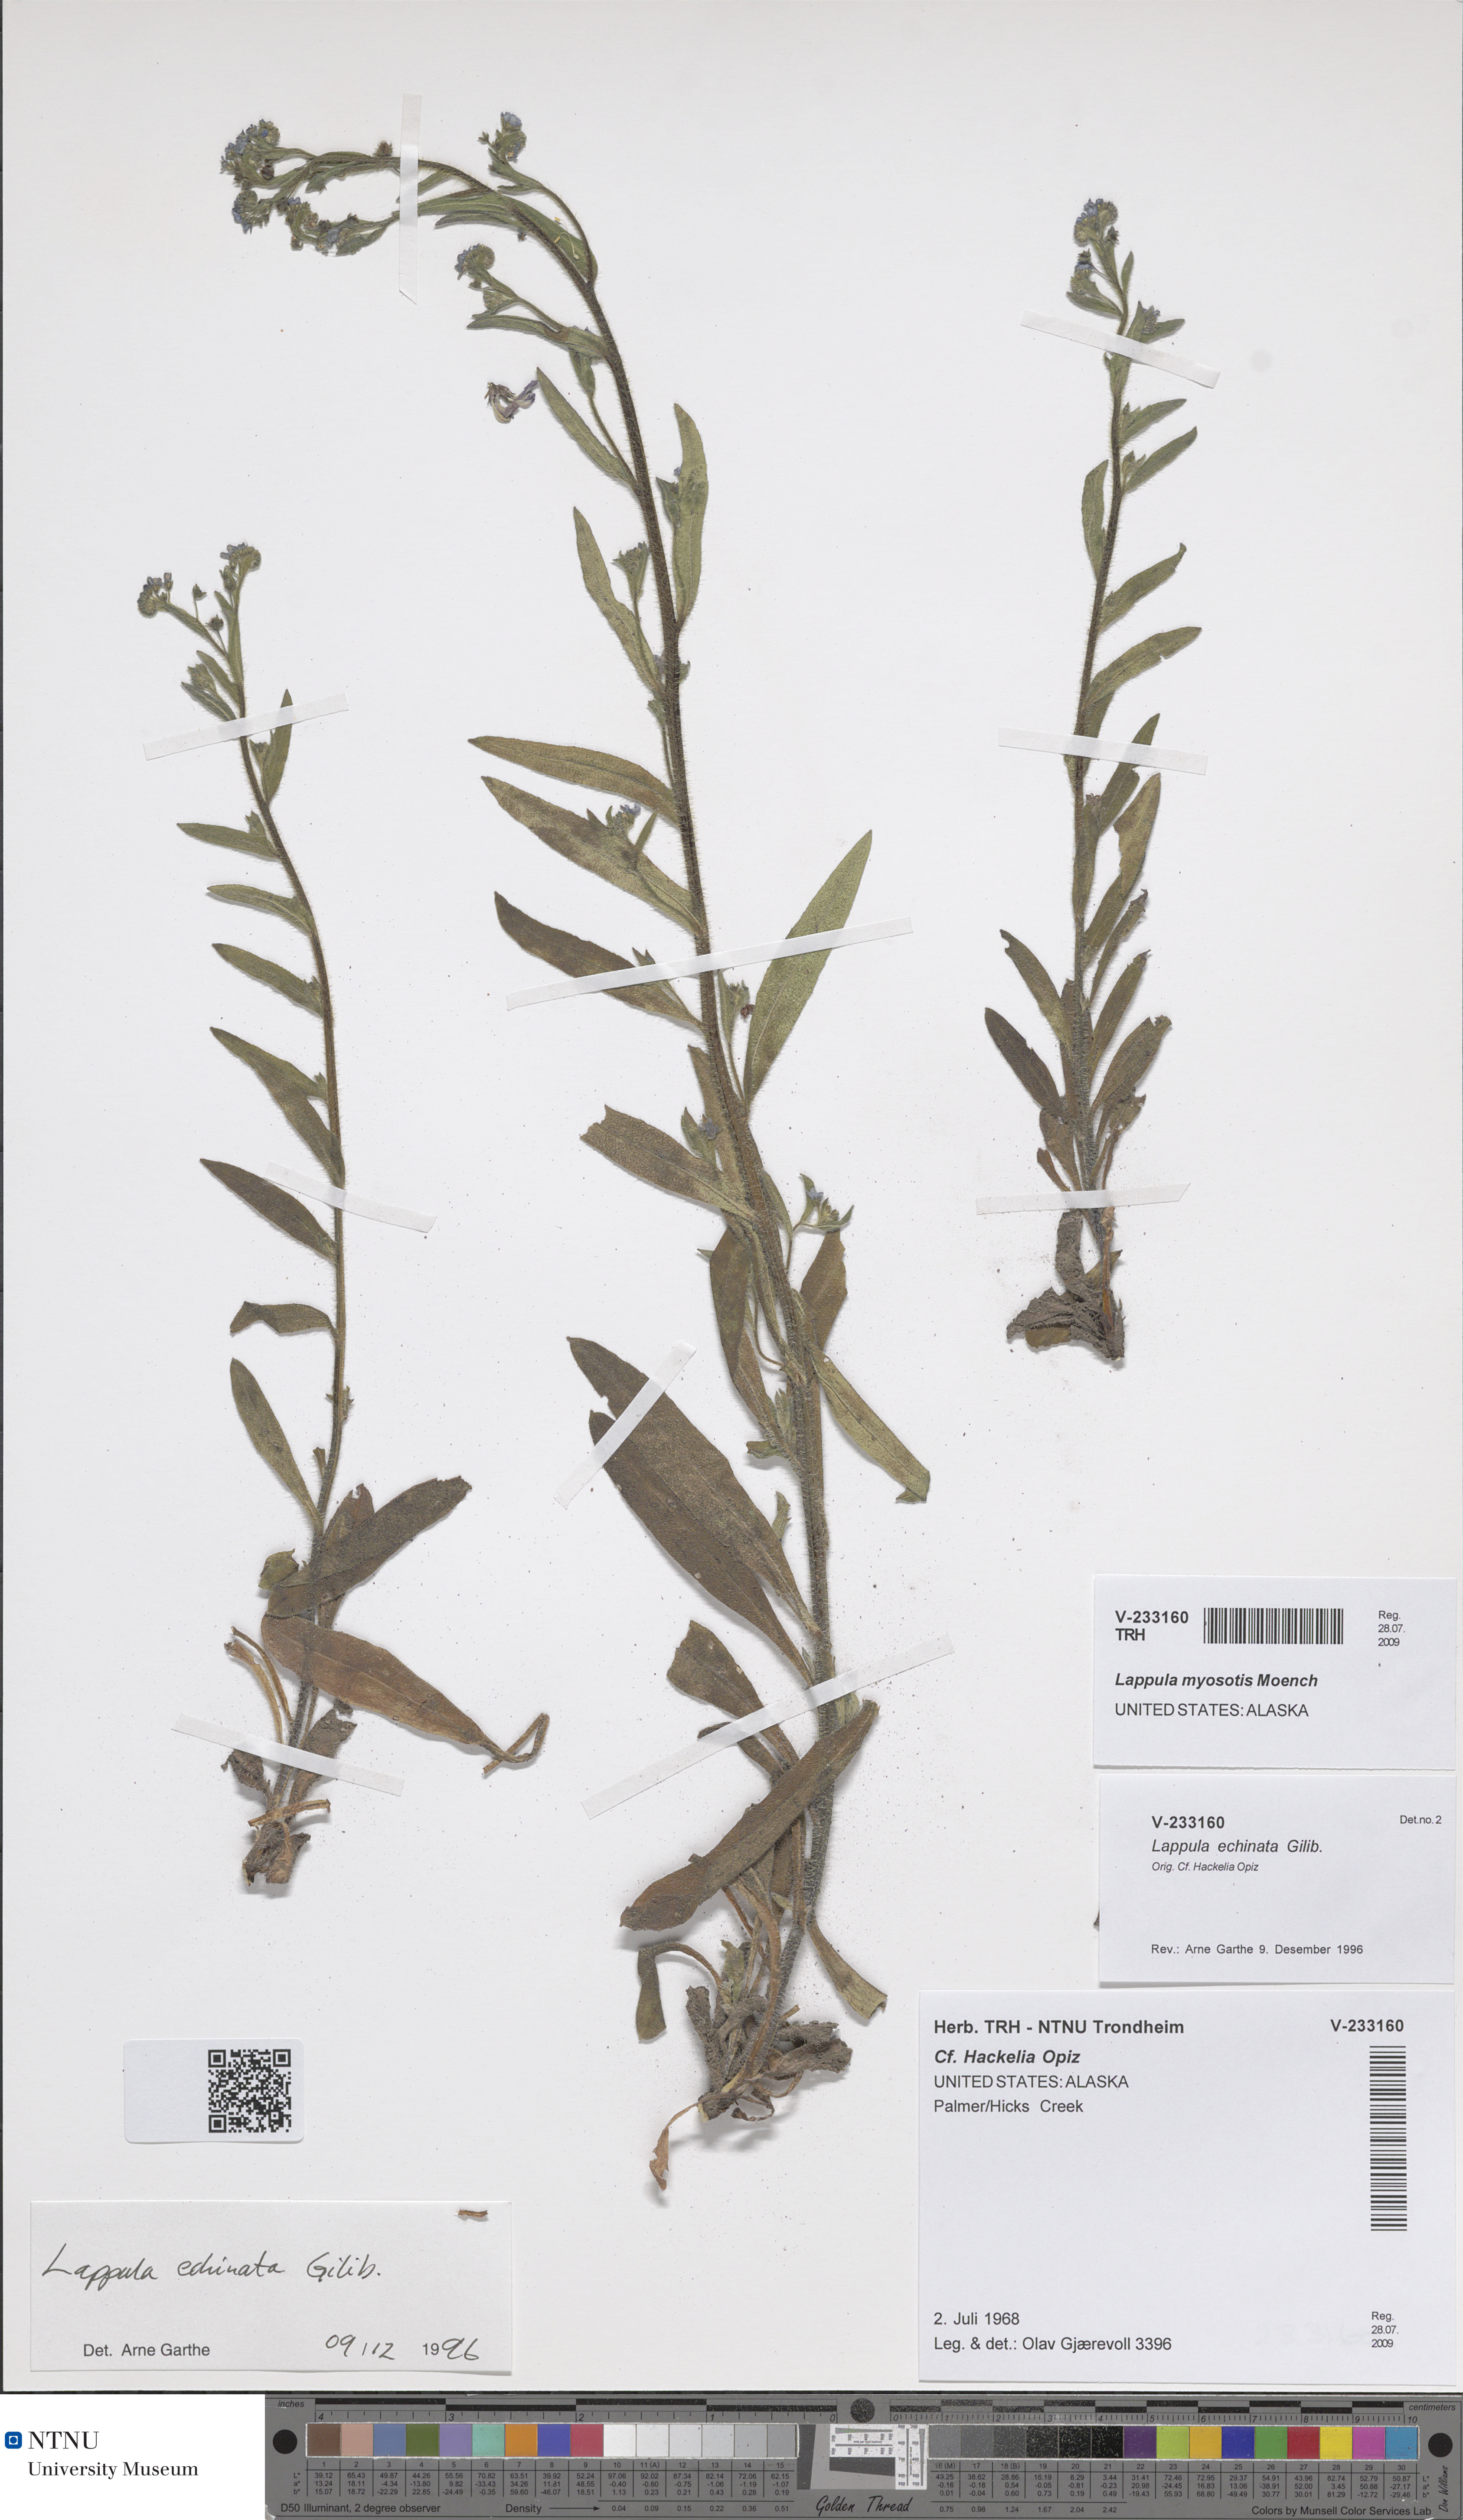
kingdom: Plantae
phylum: Tracheophyta
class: Magnoliopsida
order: Boraginales
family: Boraginaceae
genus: Lappula
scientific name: Lappula squarrosa
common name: European stickseed
